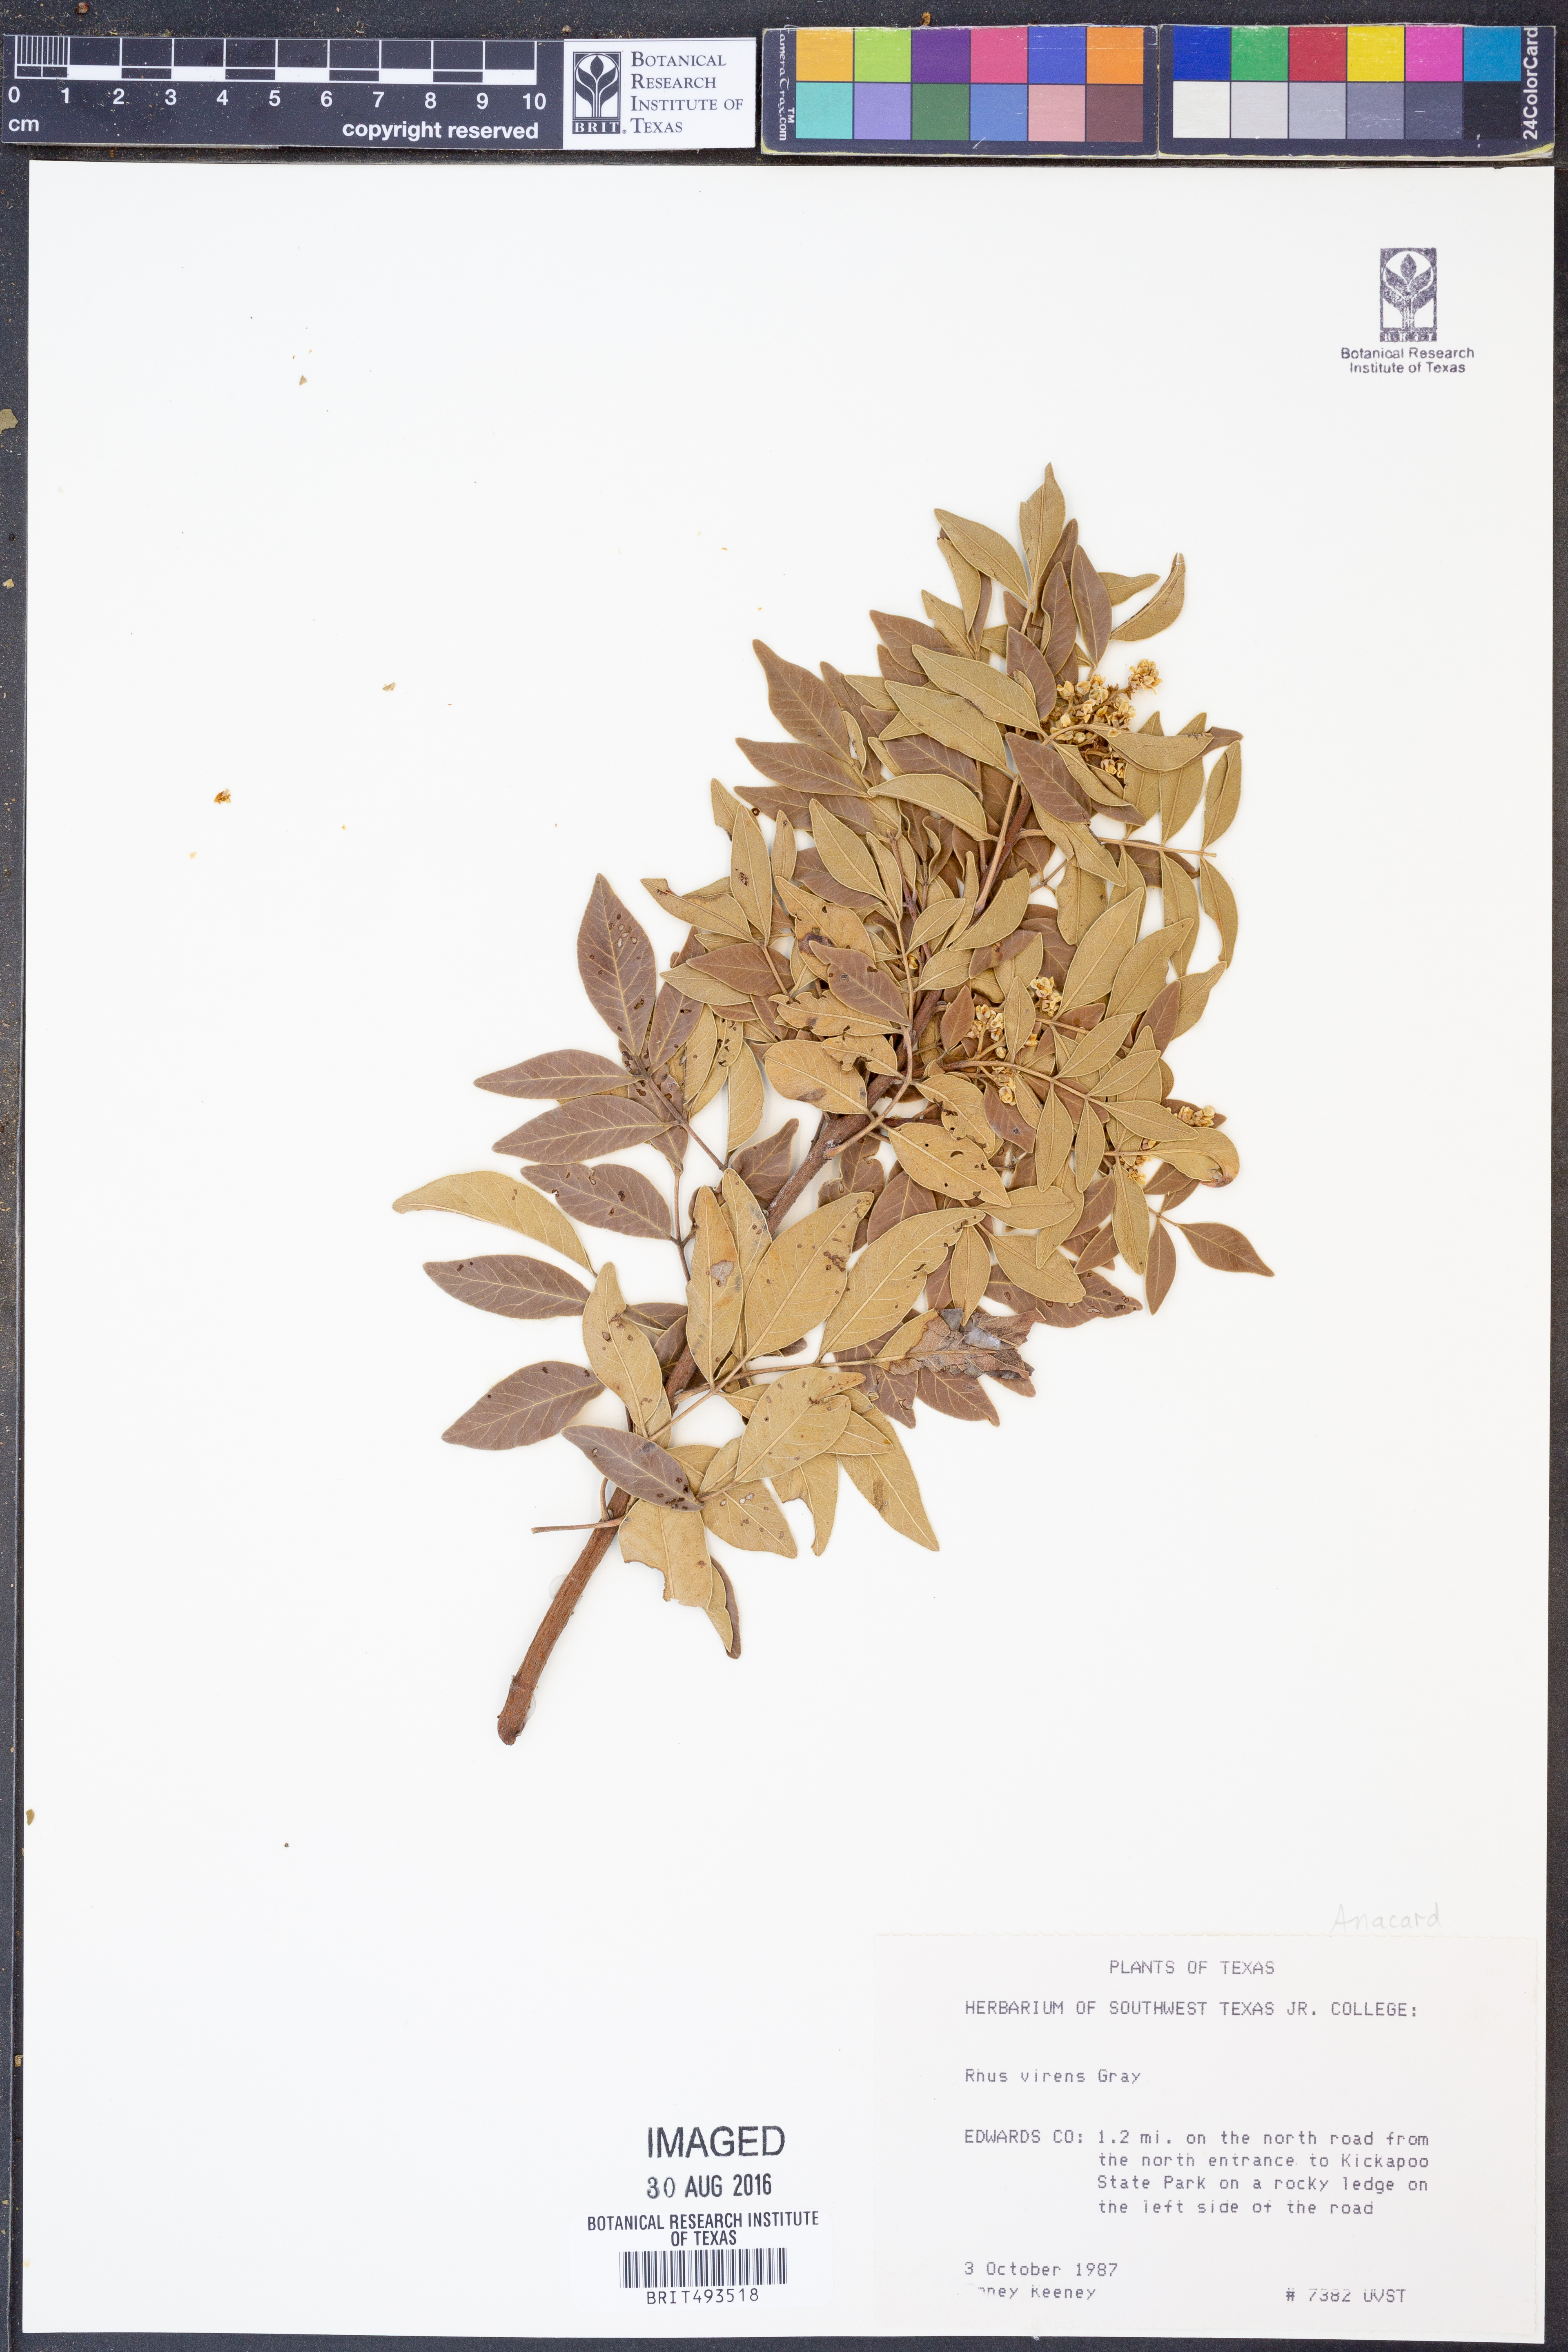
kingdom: Plantae
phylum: Tracheophyta
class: Magnoliopsida
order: Sapindales
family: Anacardiaceae
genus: Rhus
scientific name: Rhus virens
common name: Evergreen sumac
